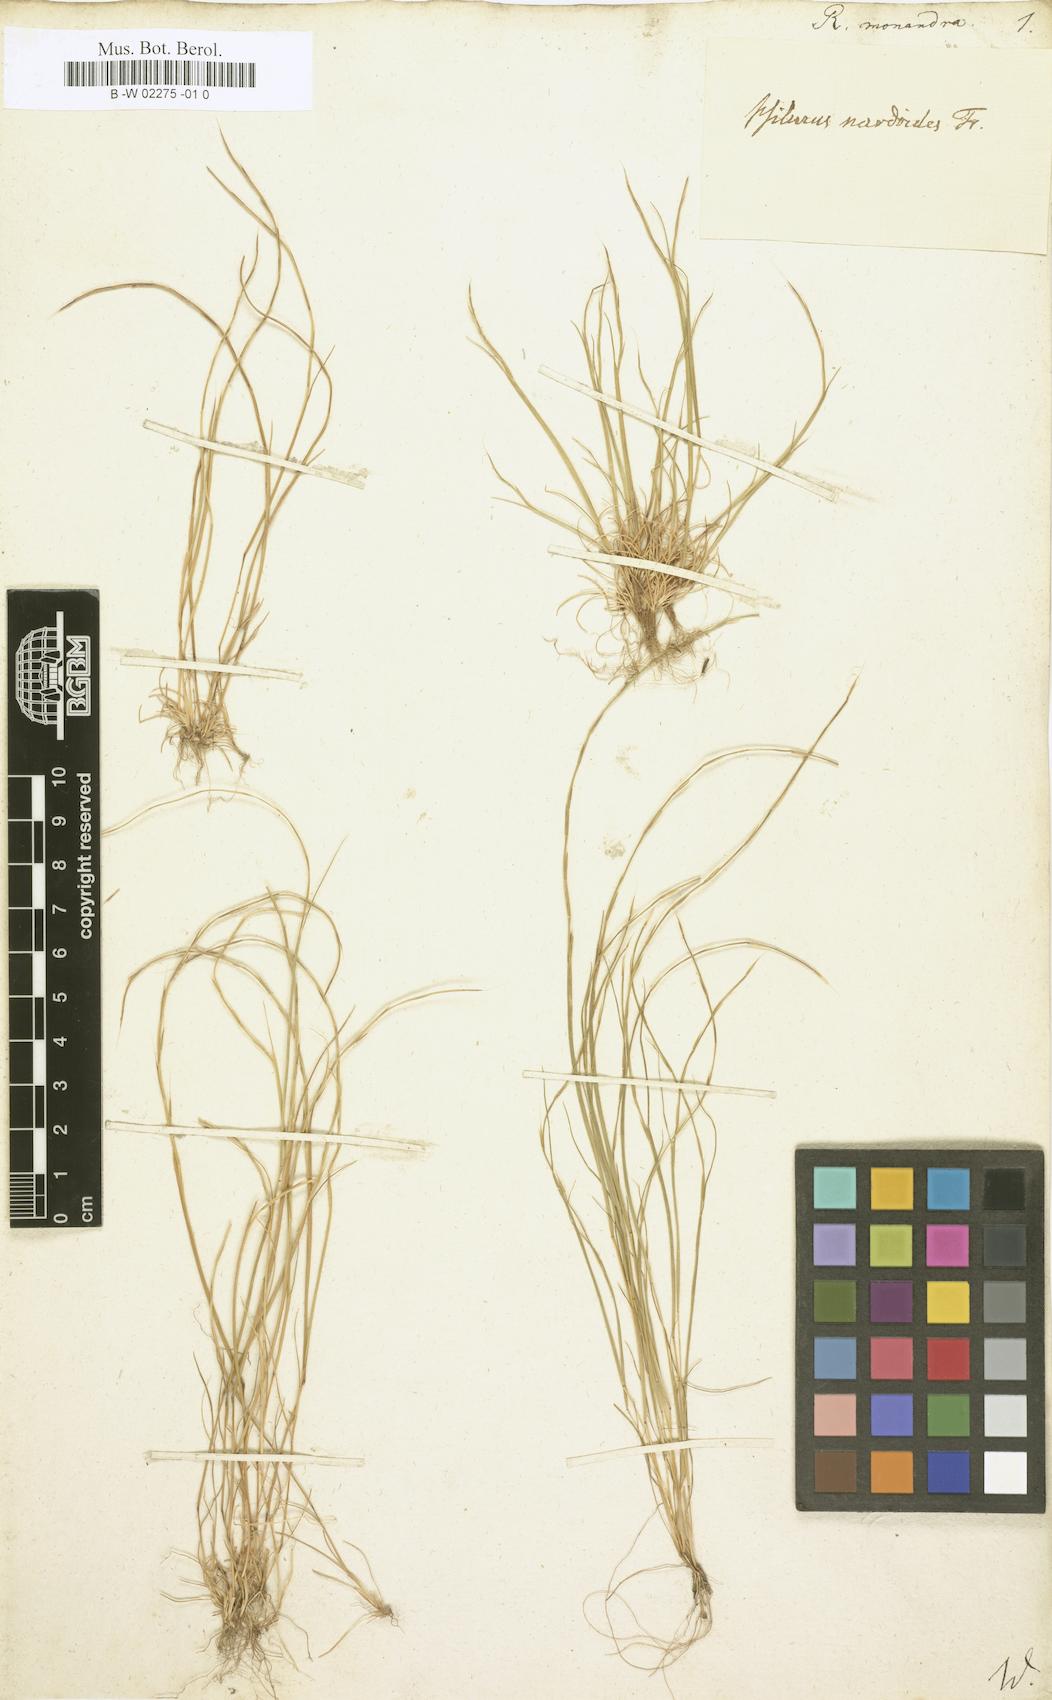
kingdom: Plantae
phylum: Tracheophyta
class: Liliopsida
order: Poales
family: Poaceae
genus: Festuca
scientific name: Festuca incurva
